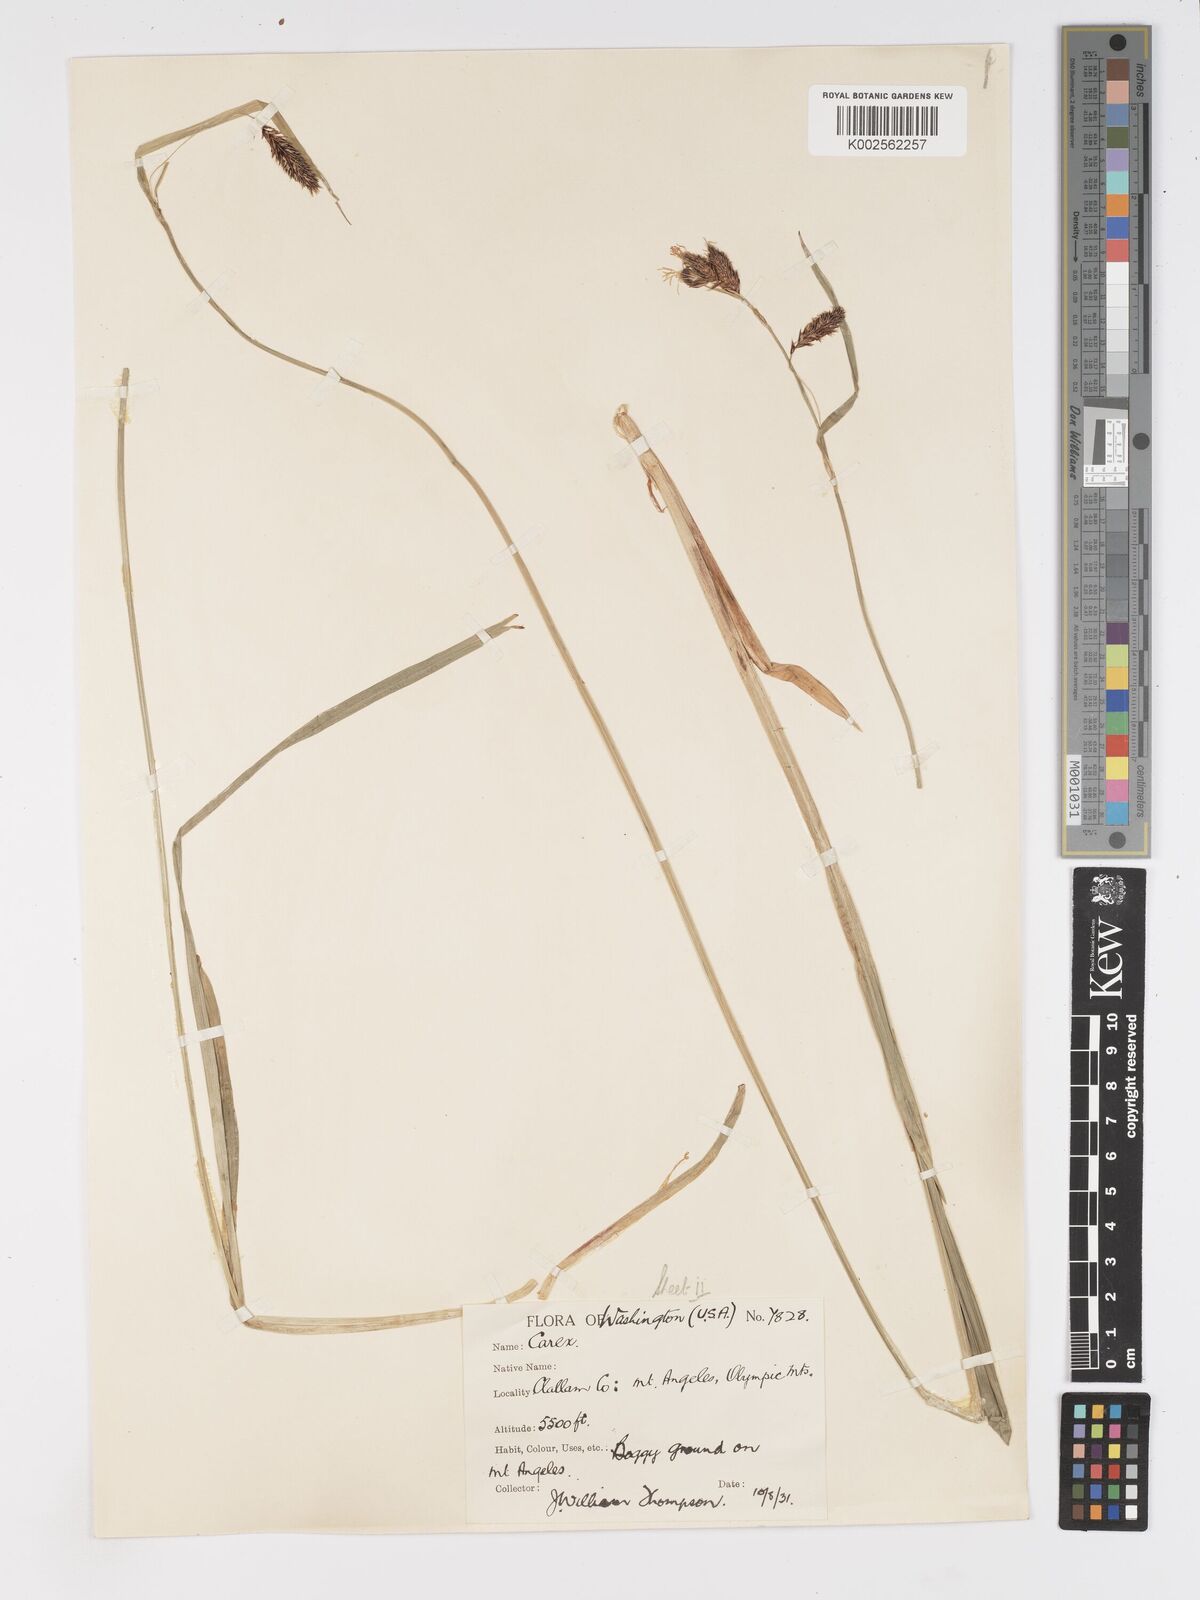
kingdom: Plantae
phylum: Tracheophyta
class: Liliopsida
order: Poales
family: Cyperaceae
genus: Carex
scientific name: Carex nebrascensis
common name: Nebraska sedge
